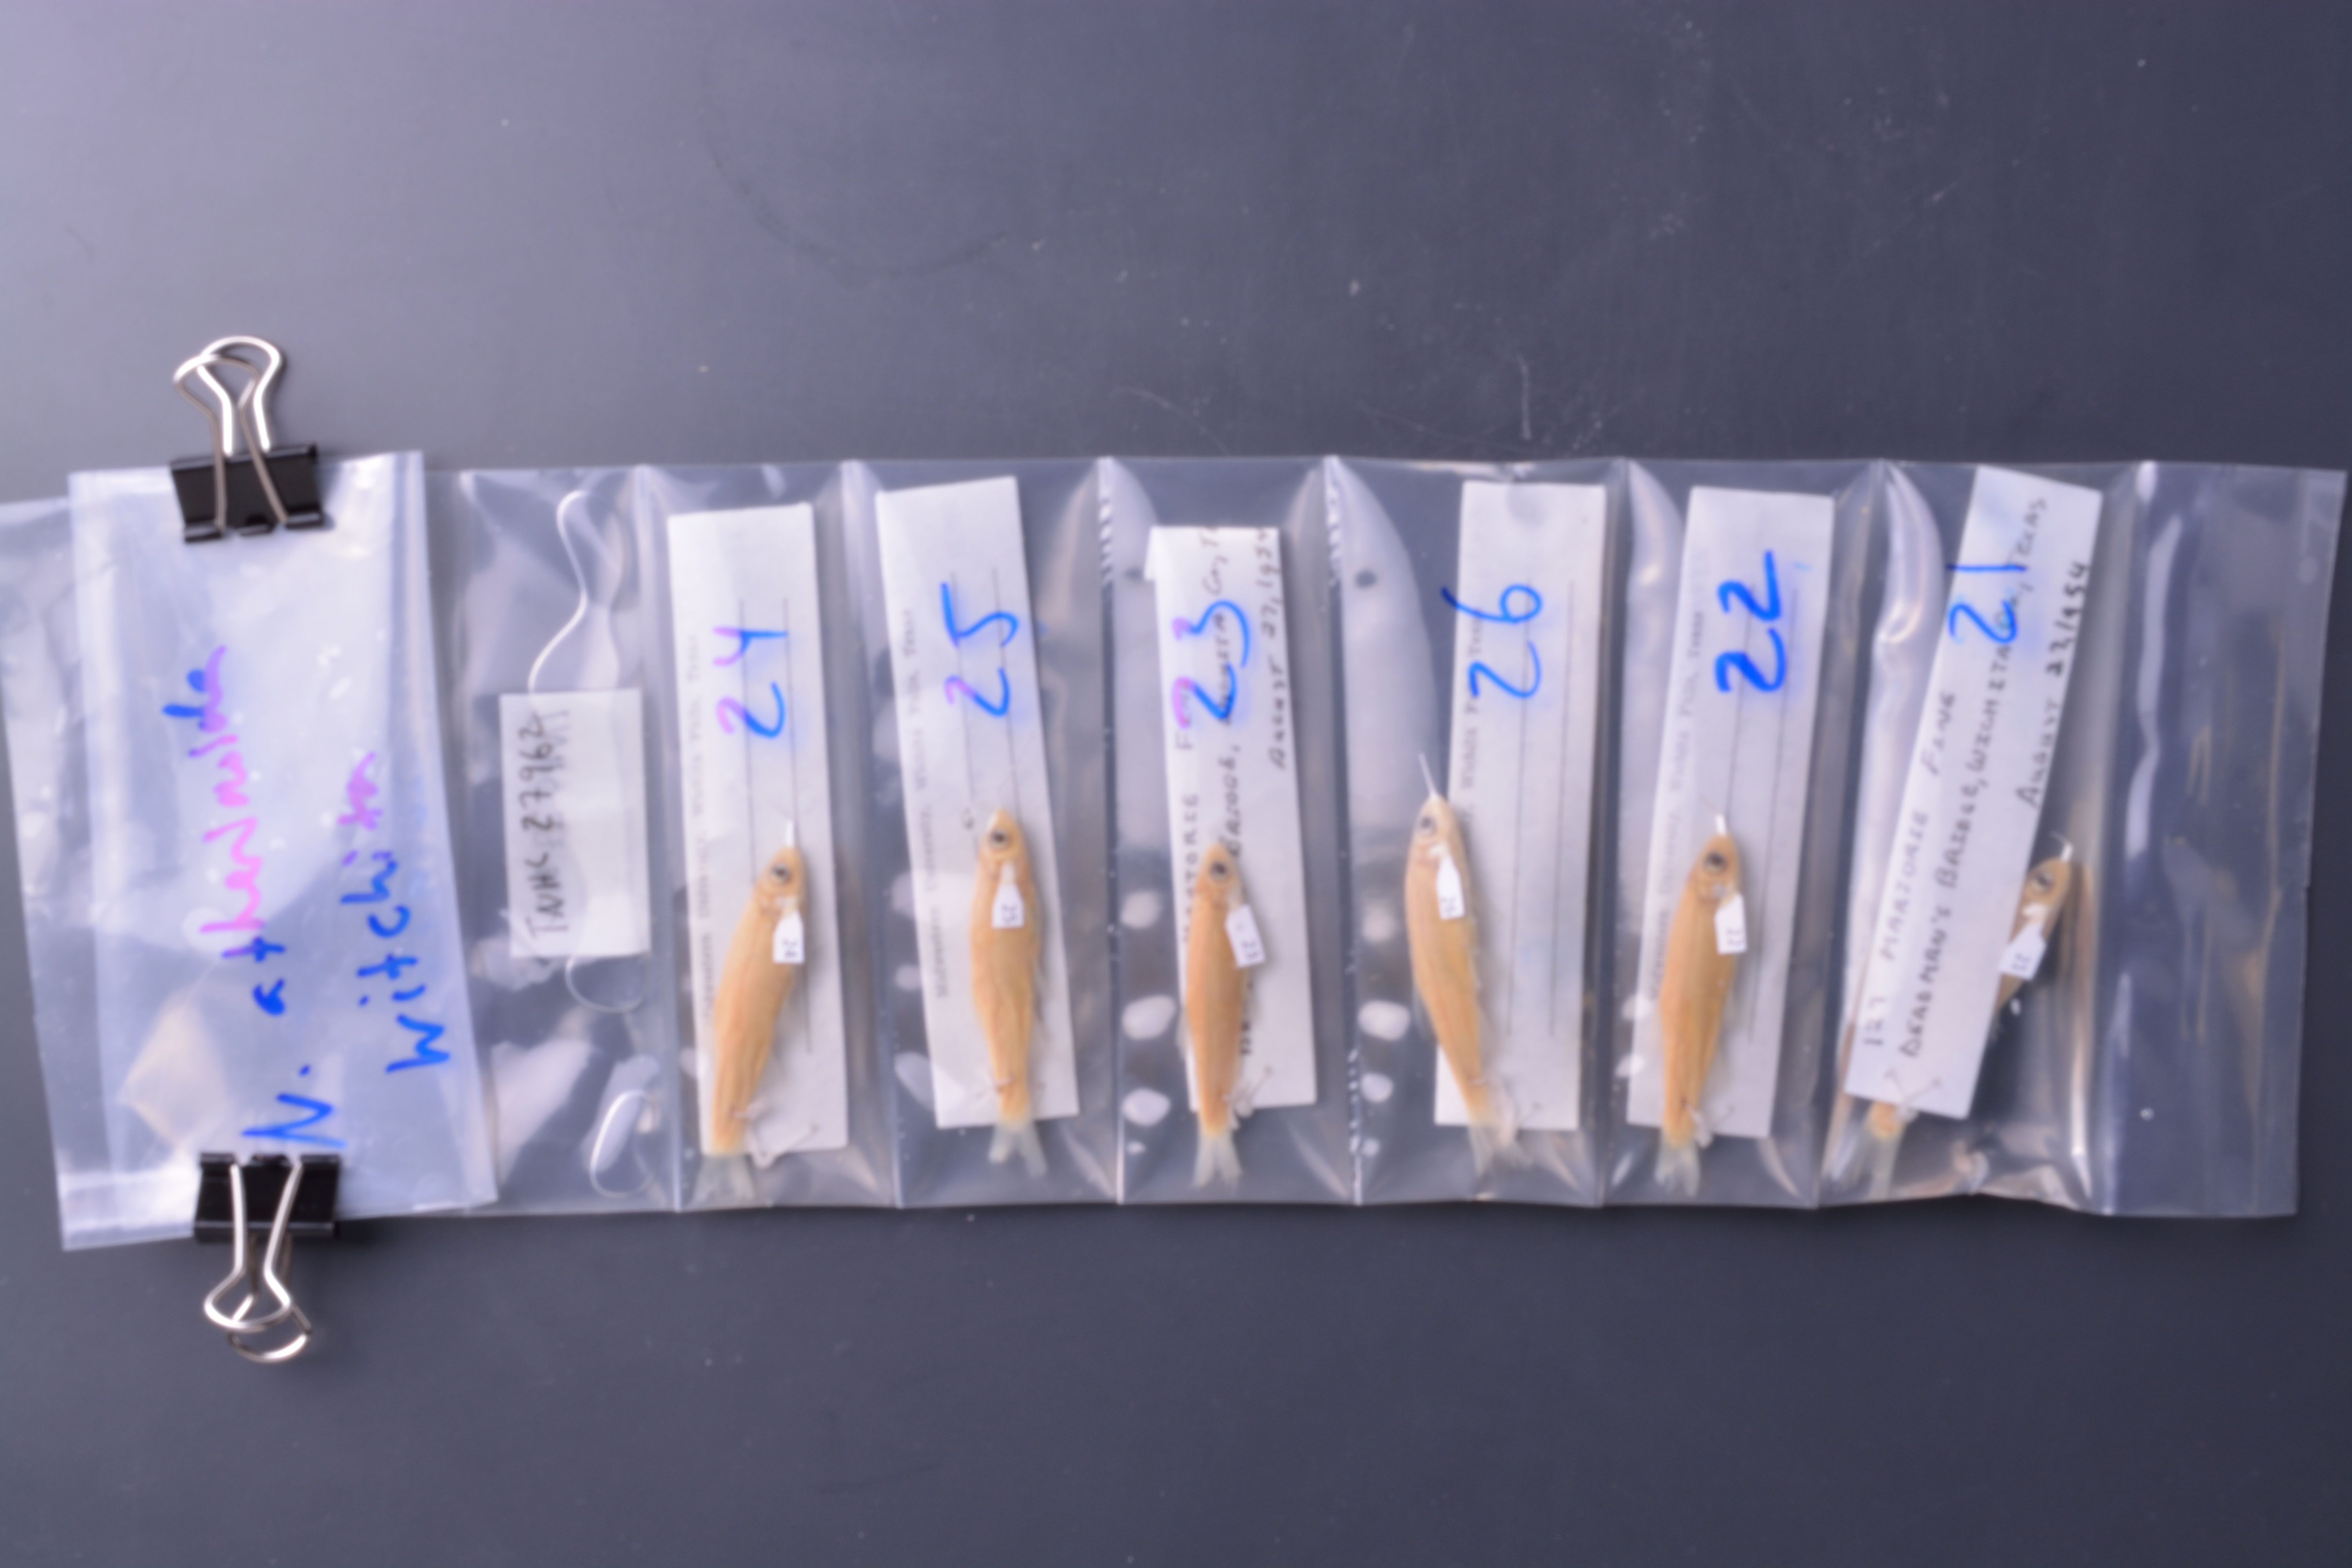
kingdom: Animalia
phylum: Chordata
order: Cypriniformes
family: Cyprinidae
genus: Notropis
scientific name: Notropis
